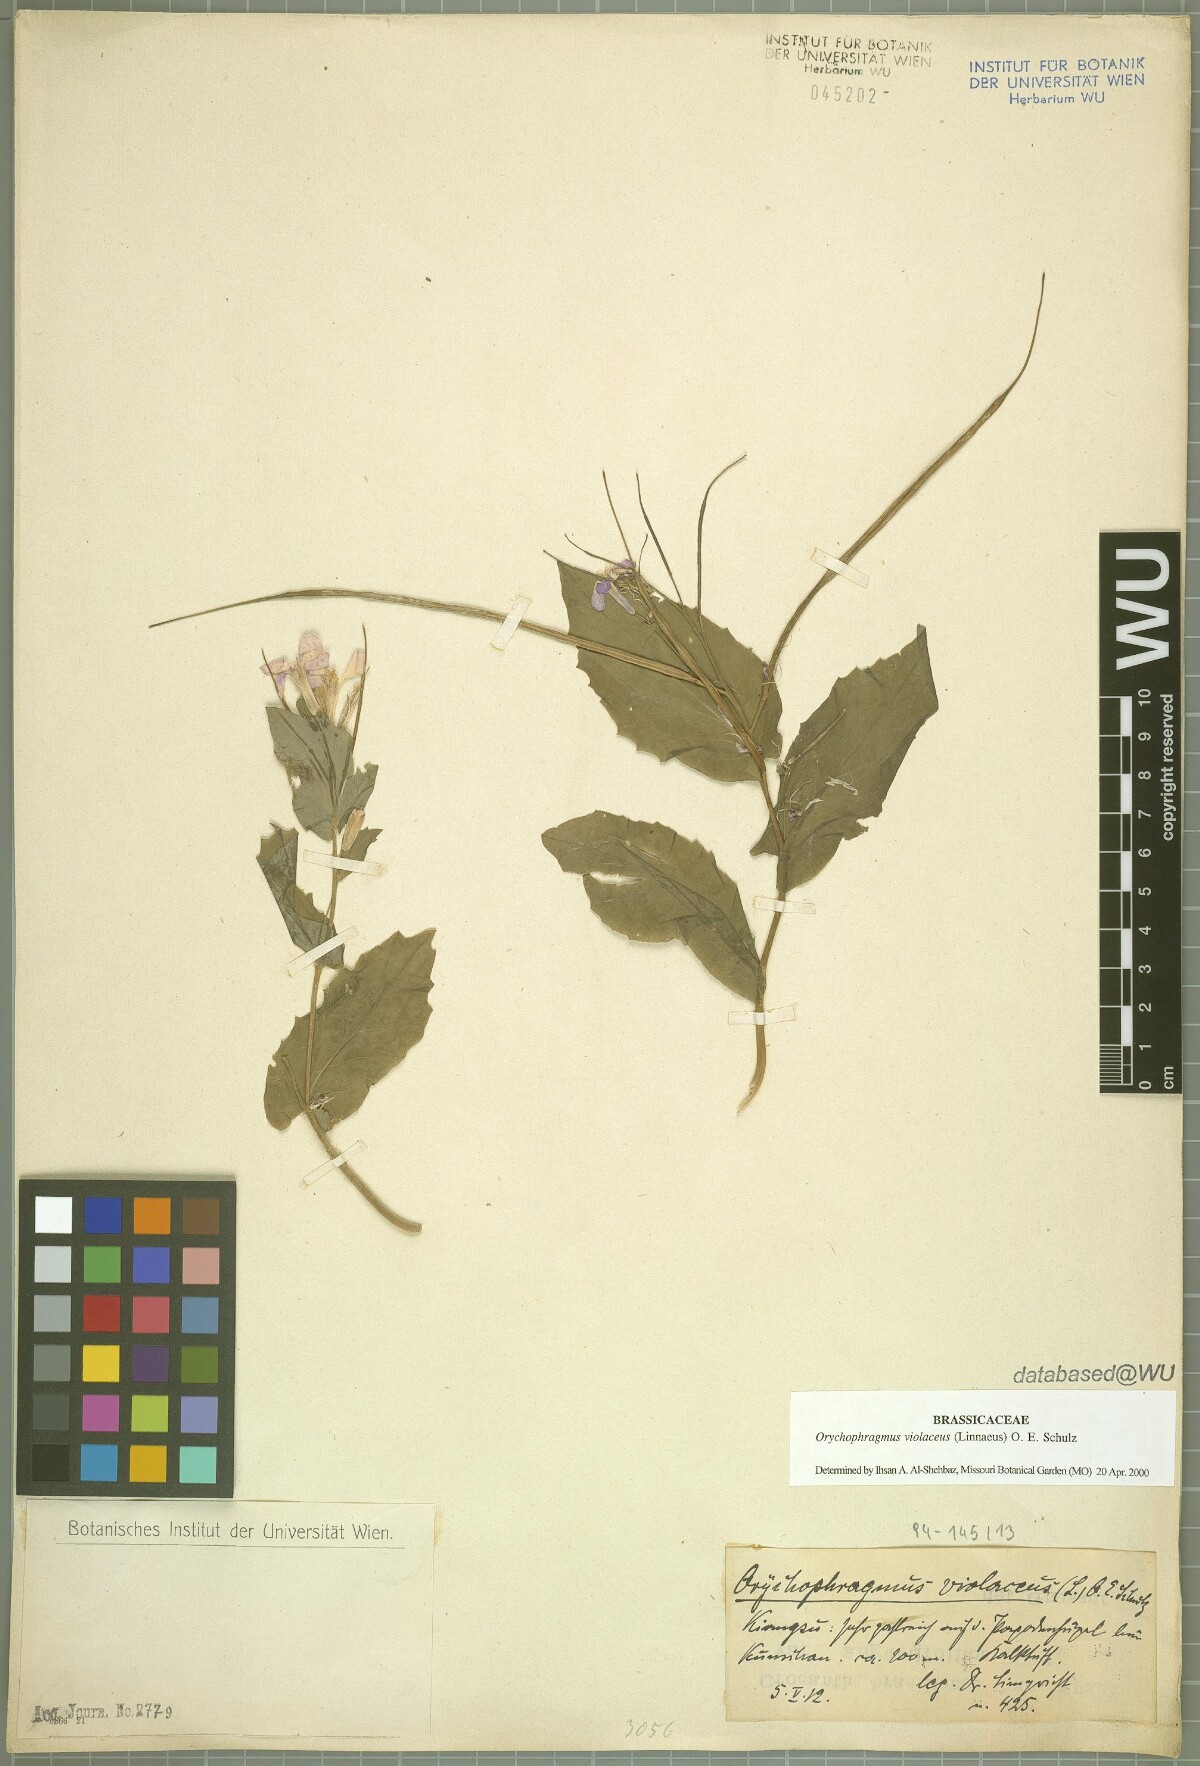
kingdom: Plantae
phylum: Tracheophyta
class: Magnoliopsida
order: Brassicales
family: Brassicaceae
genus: Orychophragmus
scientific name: Orychophragmus violaceus
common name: Mustard
